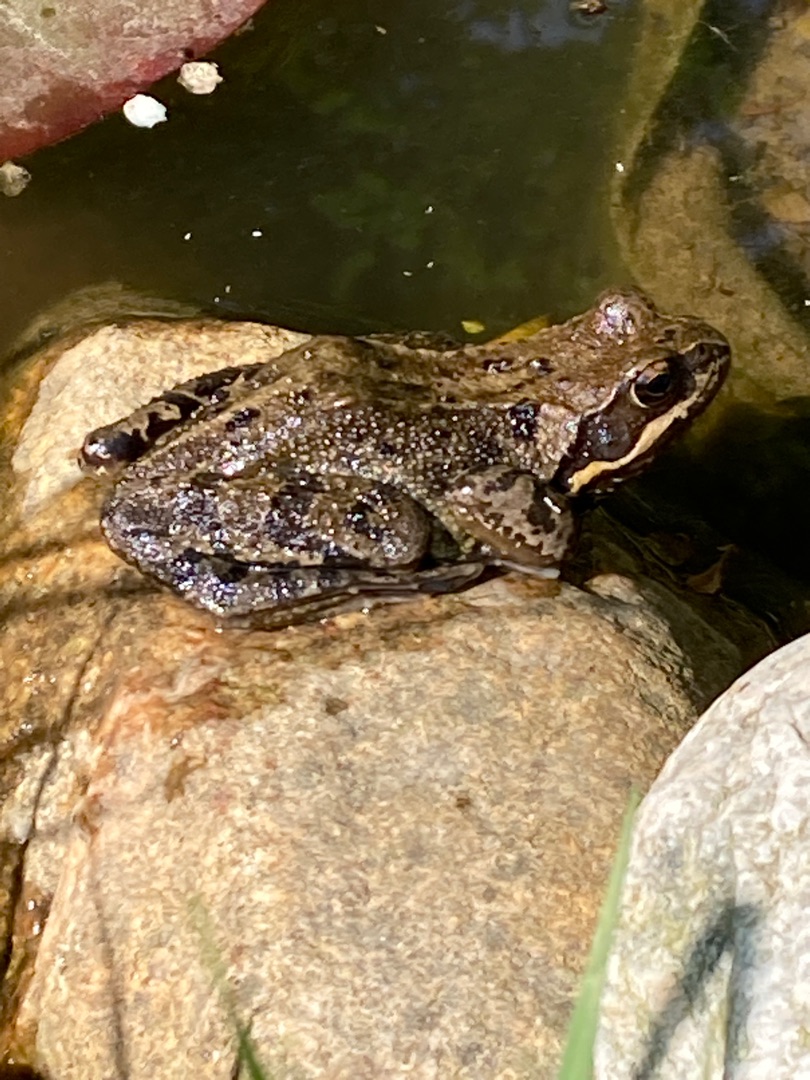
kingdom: Animalia
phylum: Chordata
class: Amphibia
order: Anura
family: Ranidae
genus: Rana
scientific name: Rana temporaria
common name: Butsnudet frø
